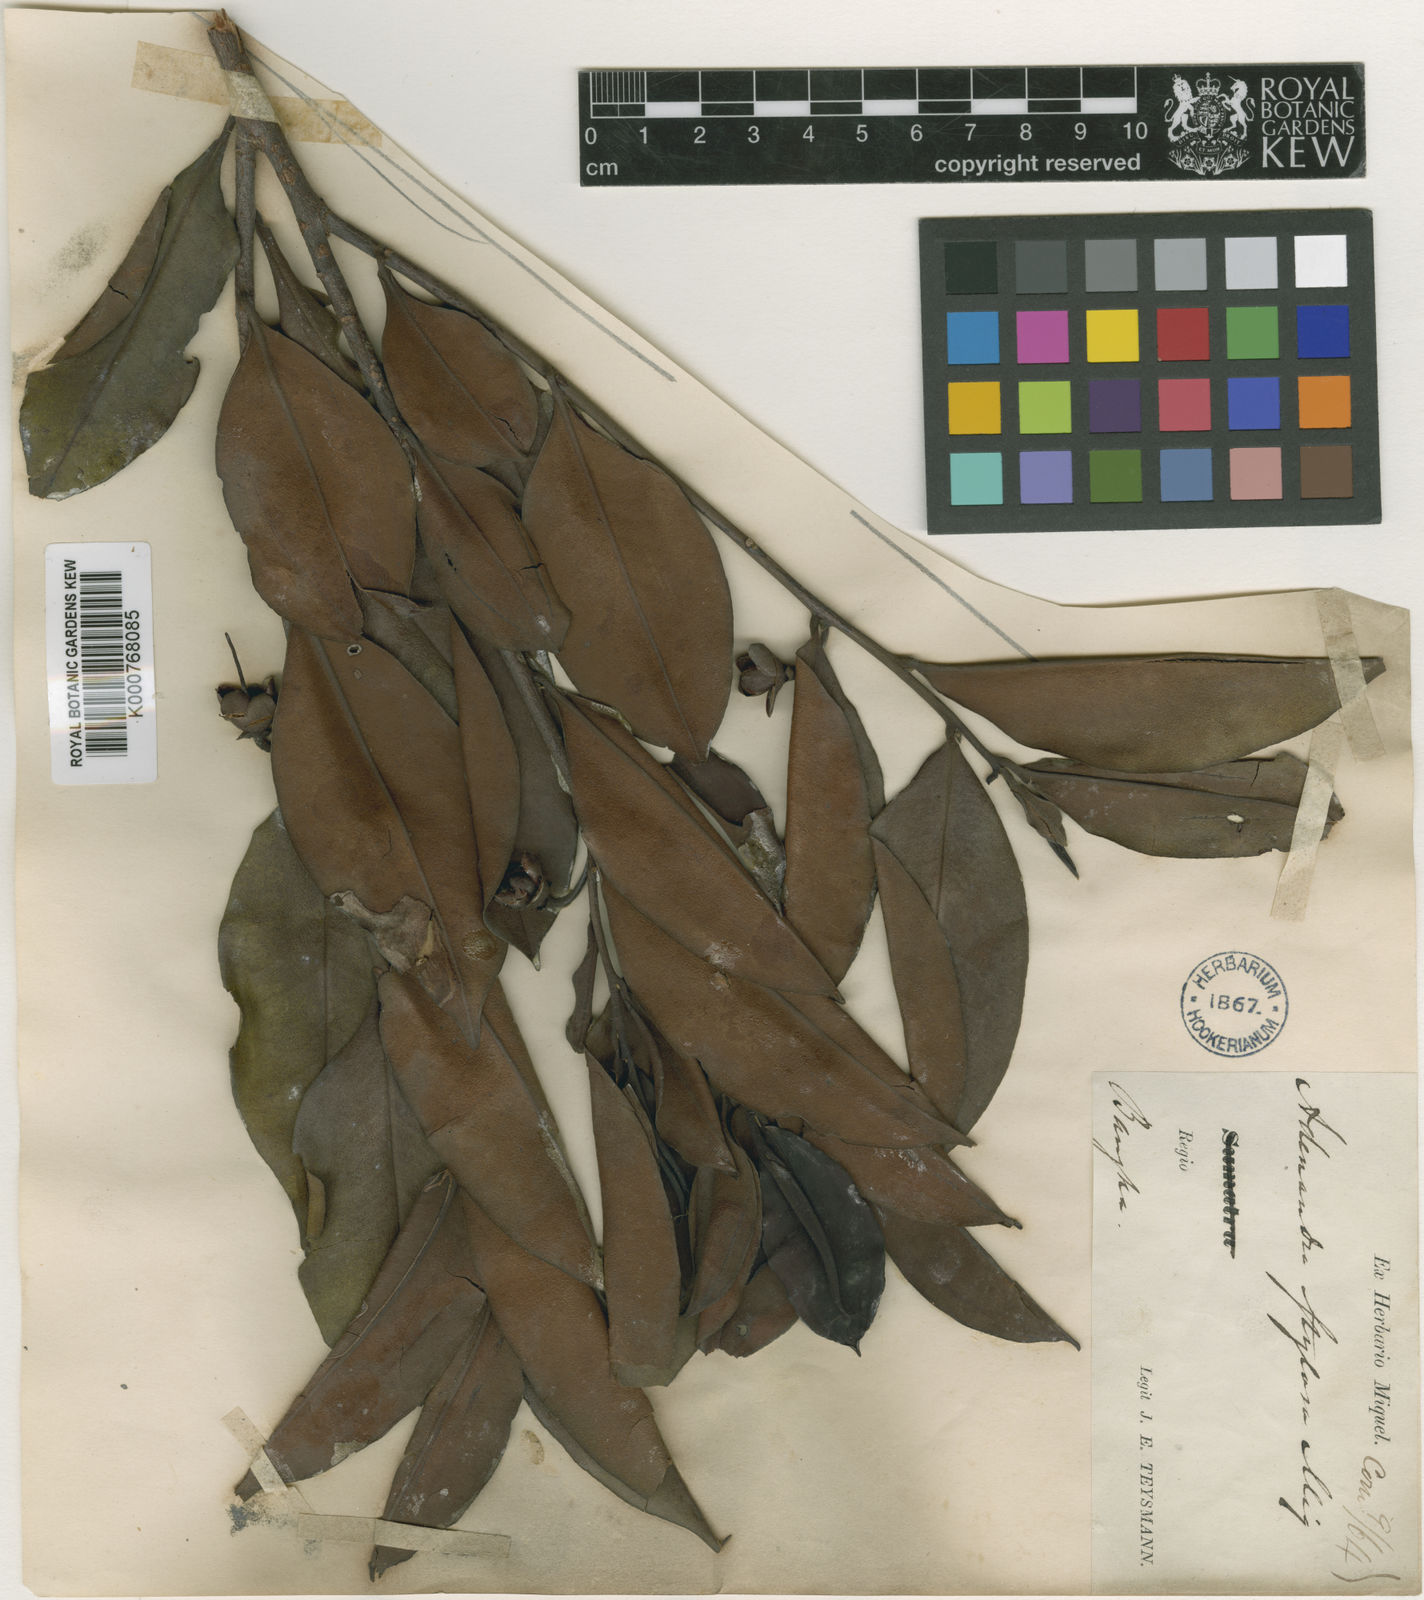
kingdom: Plantae
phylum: Tracheophyta
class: Magnoliopsida
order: Ericales
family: Pentaphylacaceae
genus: Adinandra
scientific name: Adinandra dumosa
